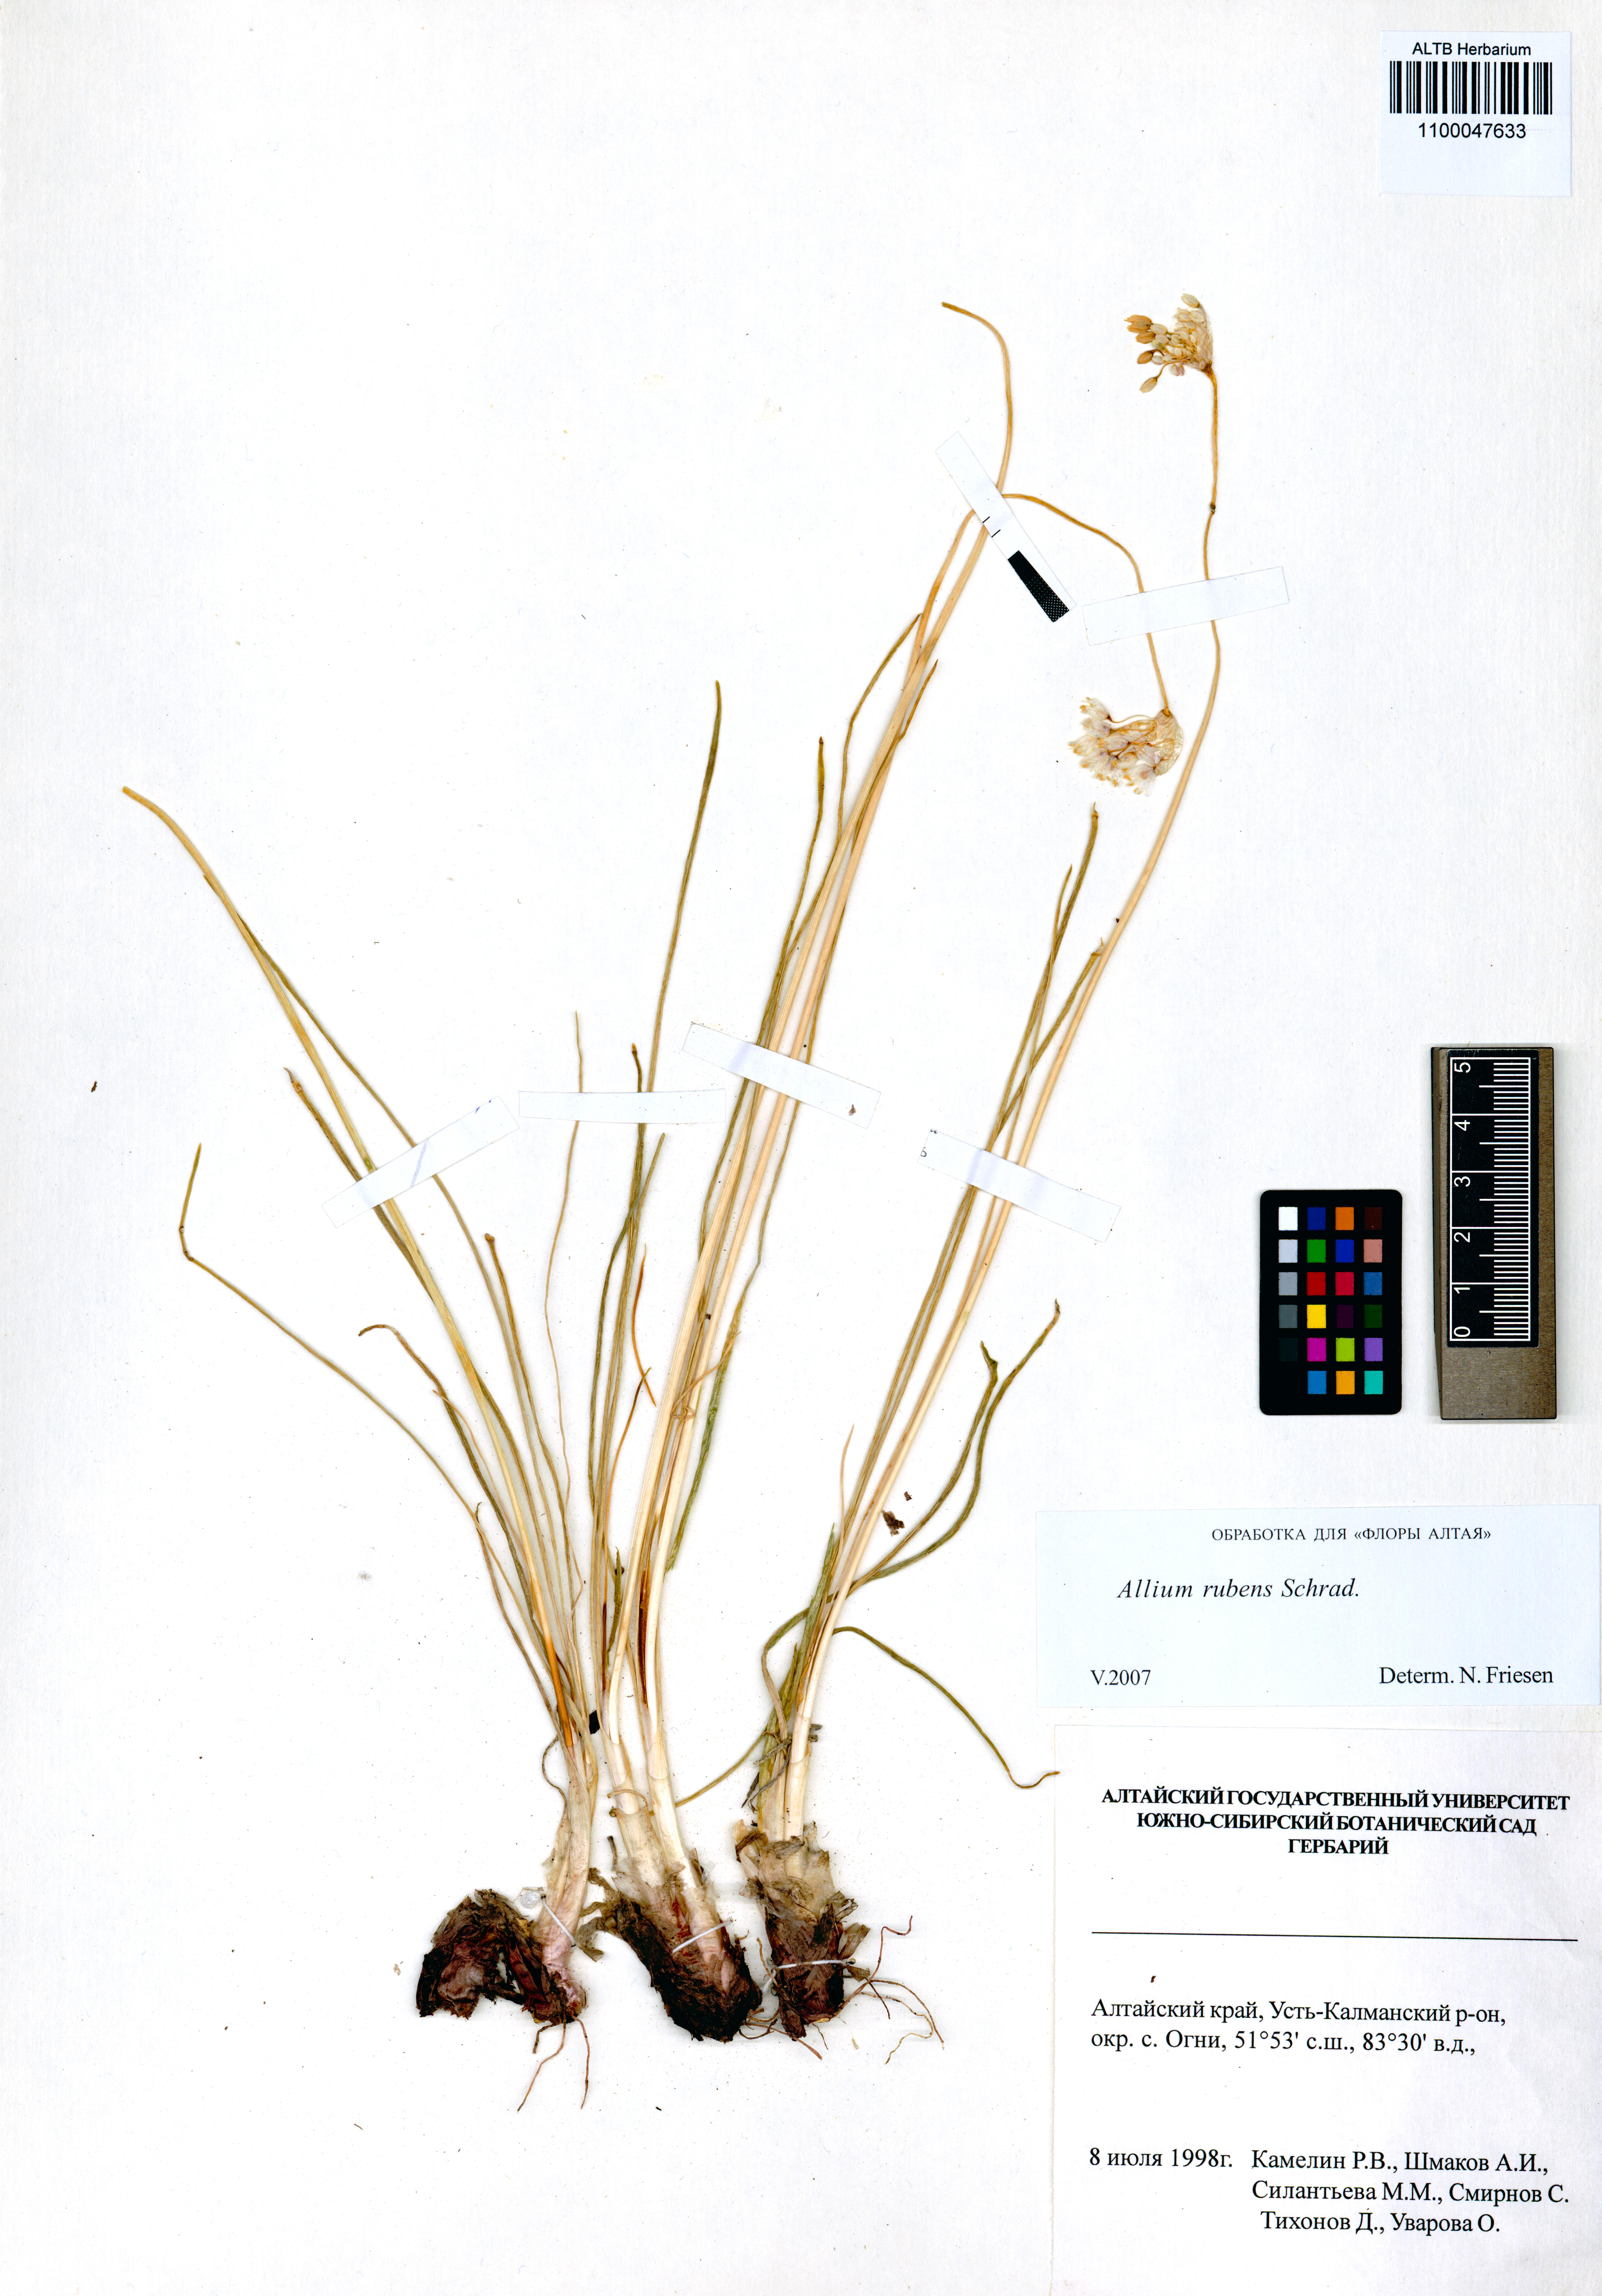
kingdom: Plantae
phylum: Tracheophyta
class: Liliopsida
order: Asparagales
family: Amaryllidaceae
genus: Allium
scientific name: Allium rubens
